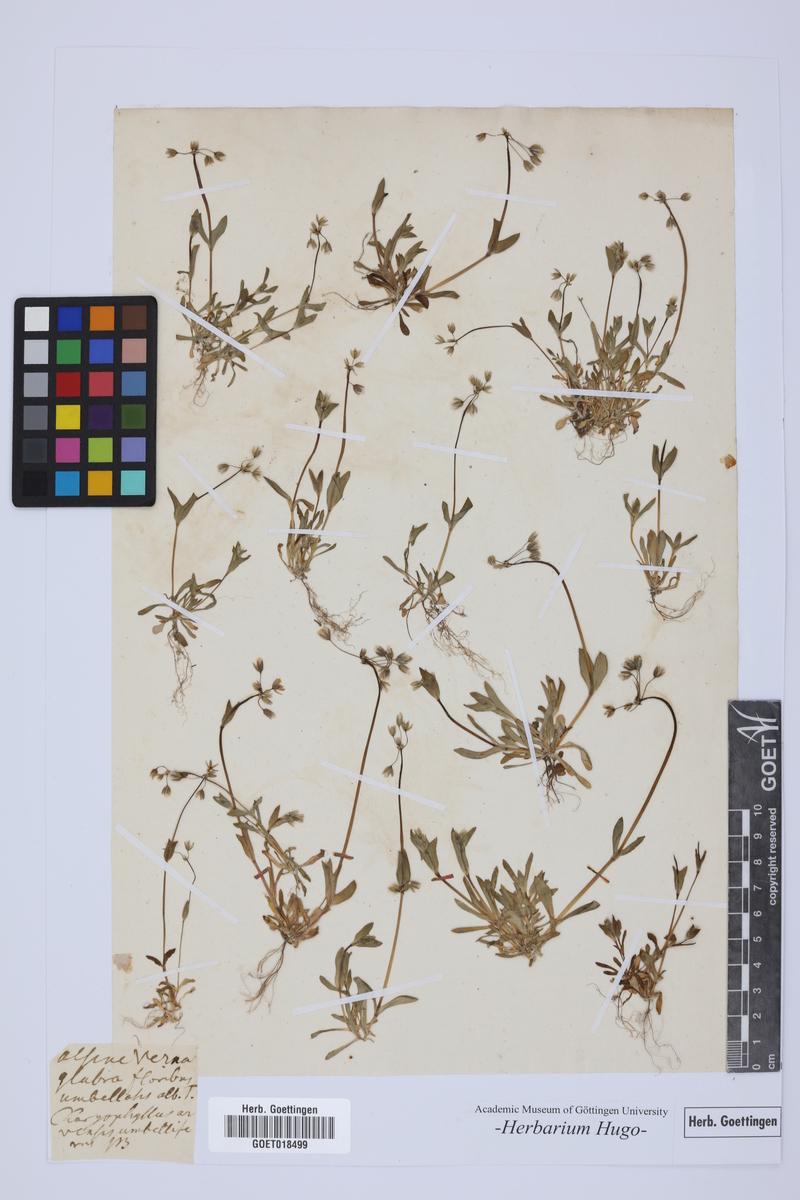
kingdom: Plantae
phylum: Tracheophyta
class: Magnoliopsida
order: Caryophyllales
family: Caryophyllaceae
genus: Alsine
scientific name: Alsine
